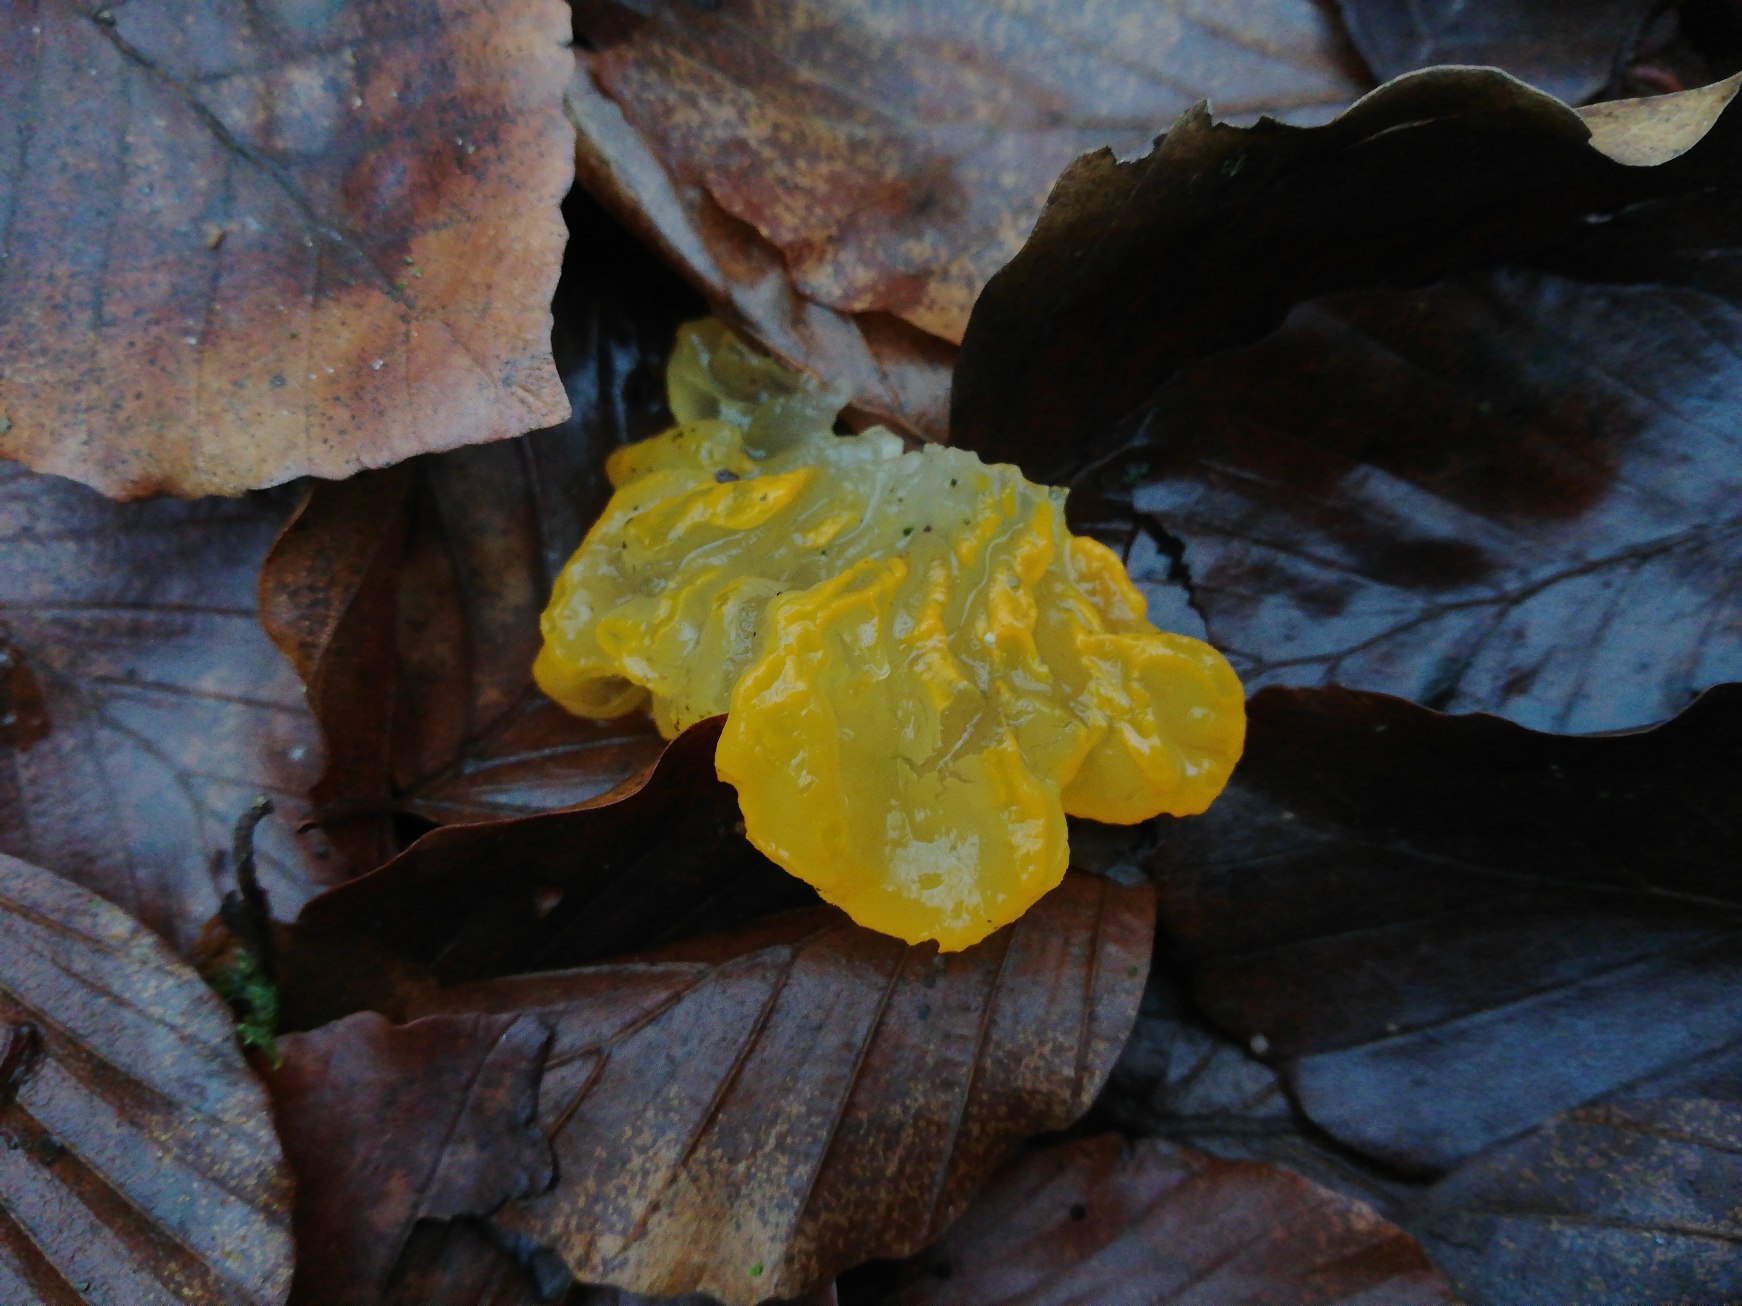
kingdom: Fungi
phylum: Basidiomycota
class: Tremellomycetes
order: Tremellales
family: Tremellaceae
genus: Tremella
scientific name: Tremella mesenterica
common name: Gul bævresvamp
